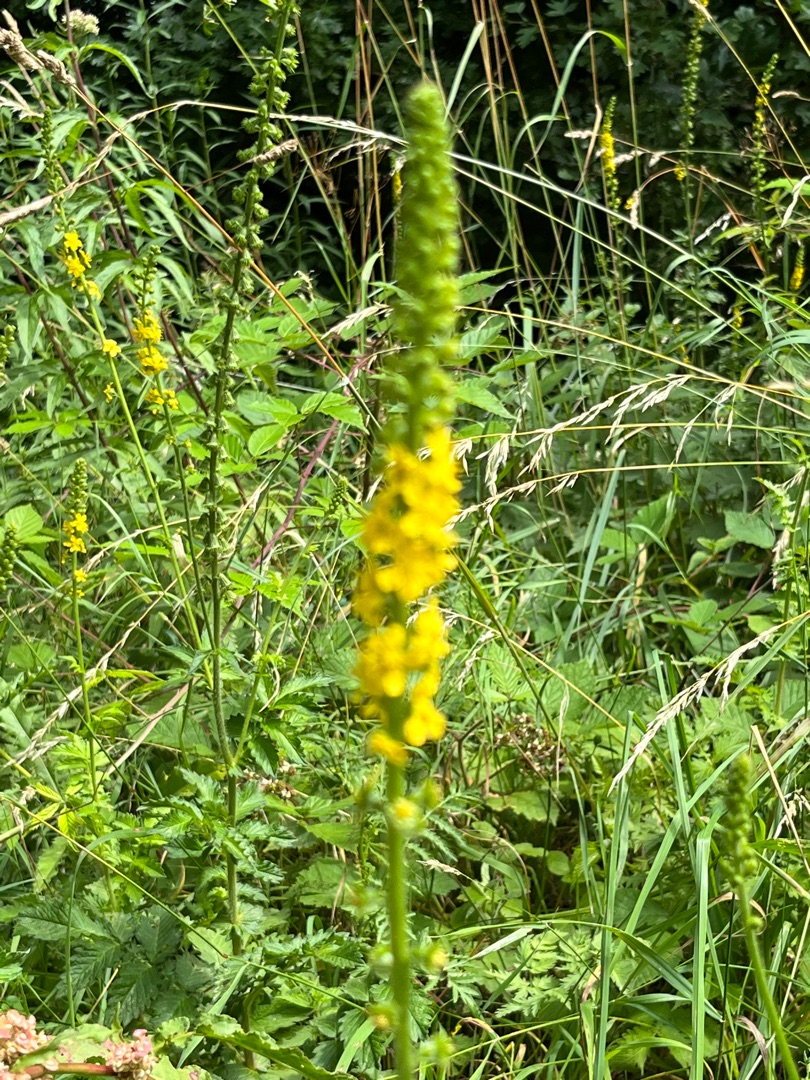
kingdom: Plantae
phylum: Tracheophyta
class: Magnoliopsida
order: Rosales
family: Rosaceae
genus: Agrimonia
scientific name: Agrimonia eupatoria
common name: Almindelig agermåne
